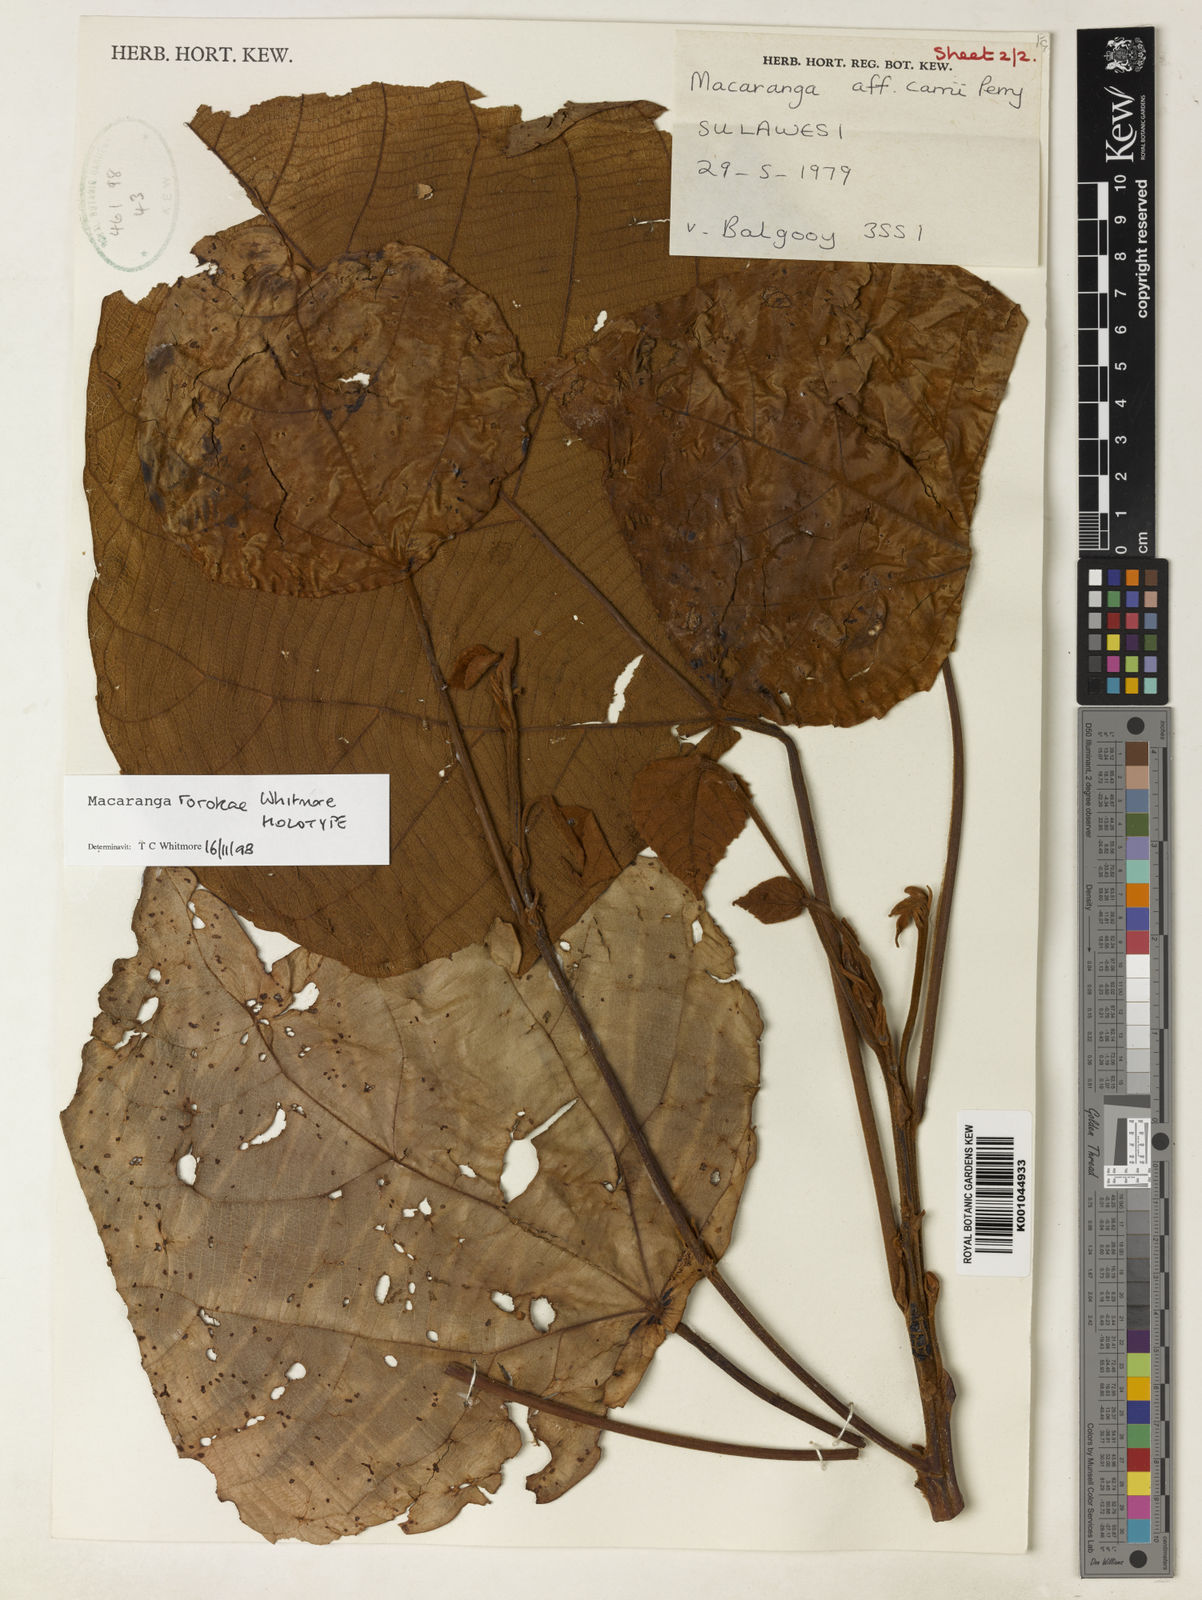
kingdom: Plantae
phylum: Tracheophyta
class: Magnoliopsida
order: Malpighiales
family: Euphorbiaceae
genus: Macaranga
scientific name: Macaranga rorokae
